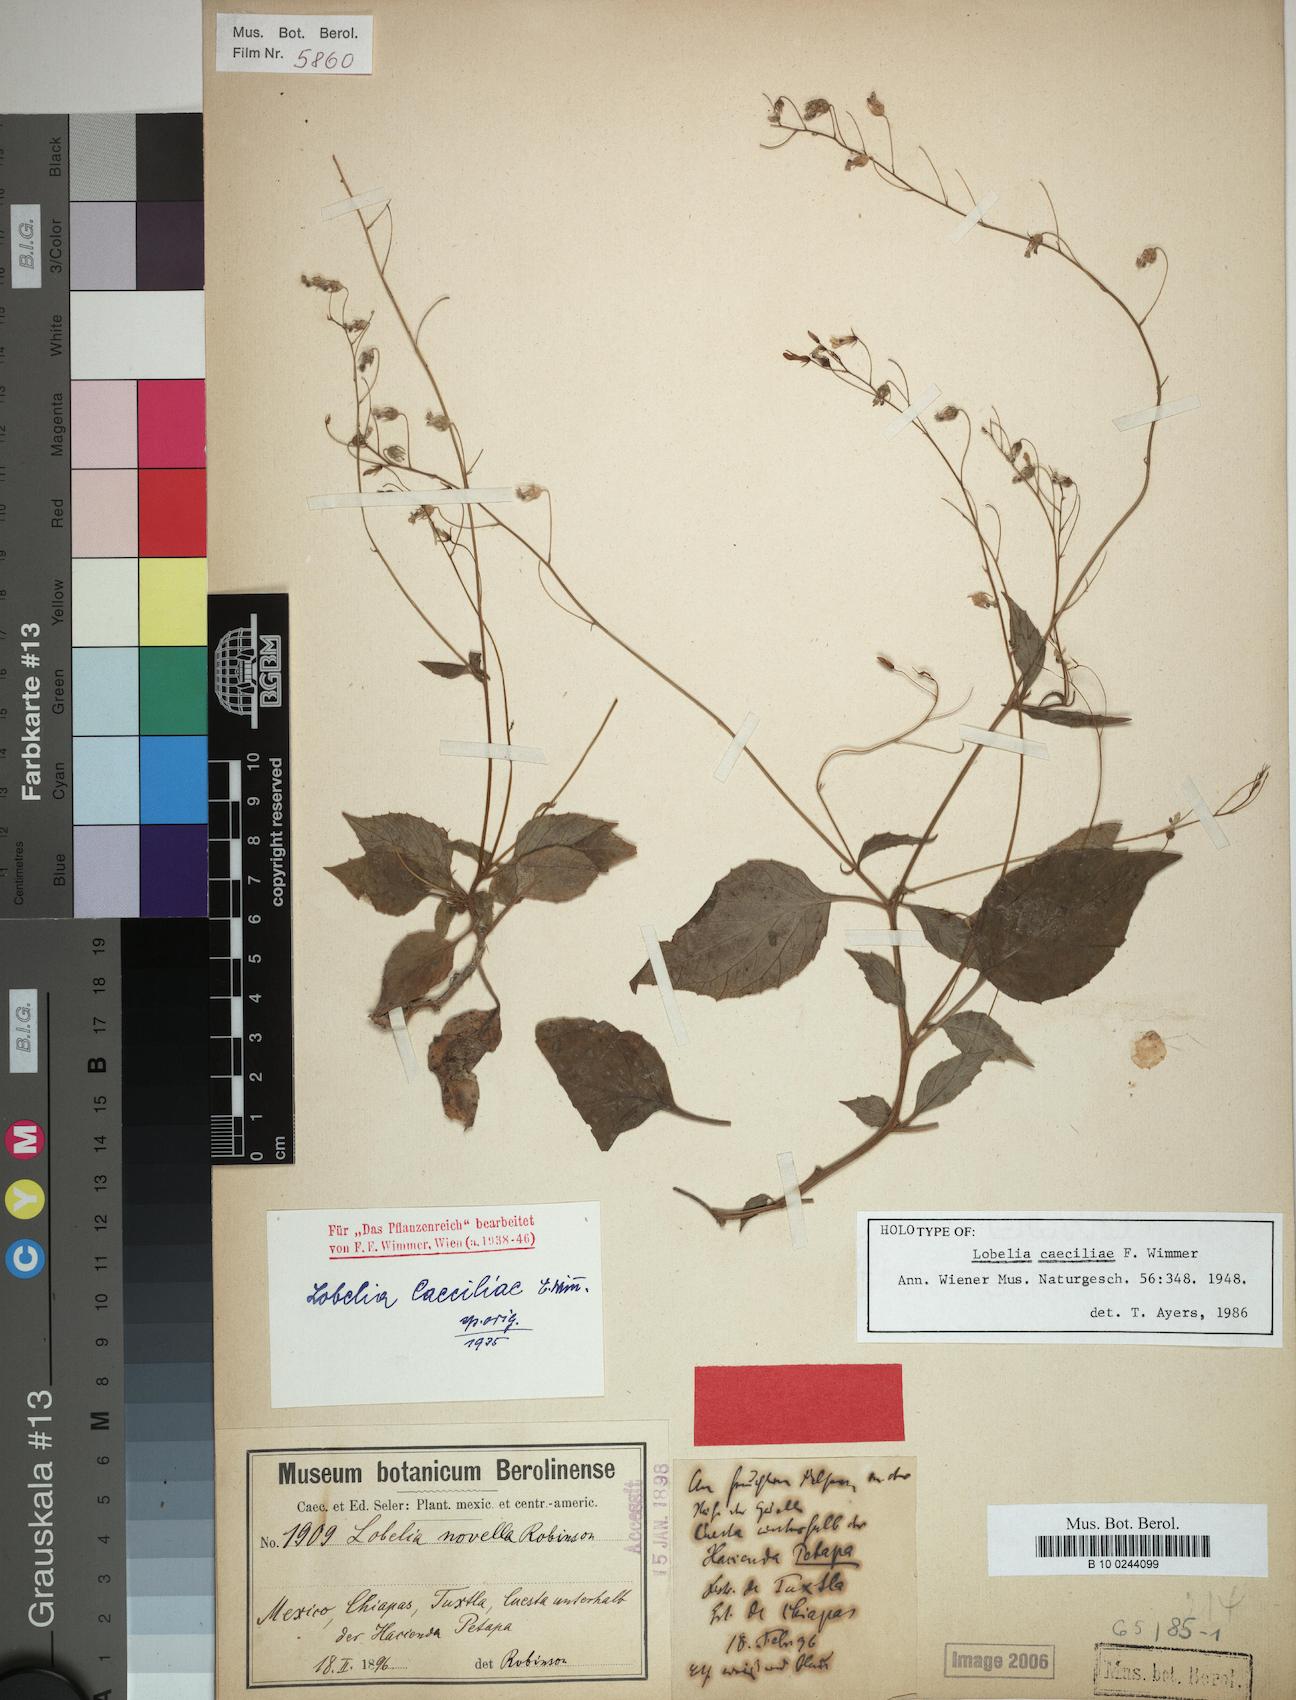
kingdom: Plantae
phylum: Tracheophyta
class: Magnoliopsida
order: Asterales
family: Campanulaceae
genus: Lobelia
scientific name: Lobelia caeciliae
